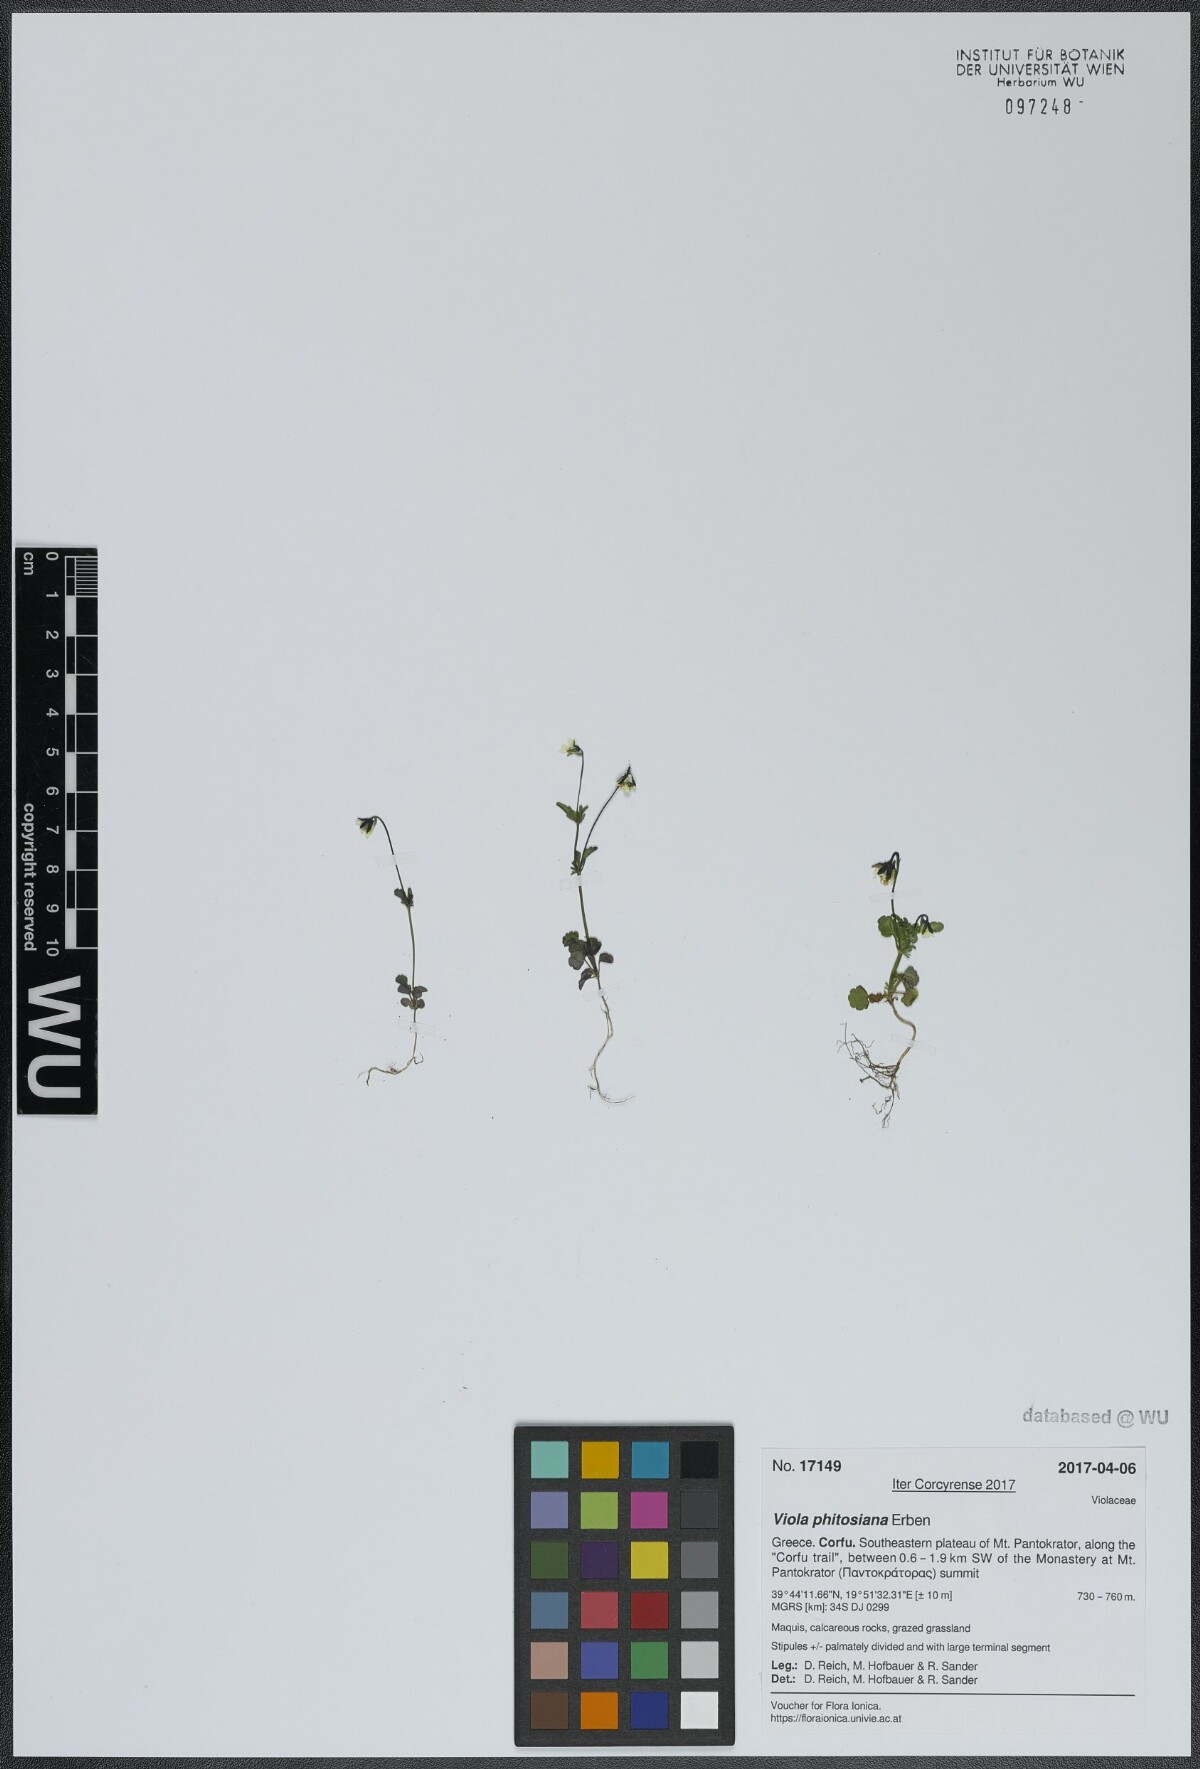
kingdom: Plantae
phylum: Tracheophyta
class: Magnoliopsida
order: Malpighiales
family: Violaceae
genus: Viola
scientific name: Viola phitosiana
